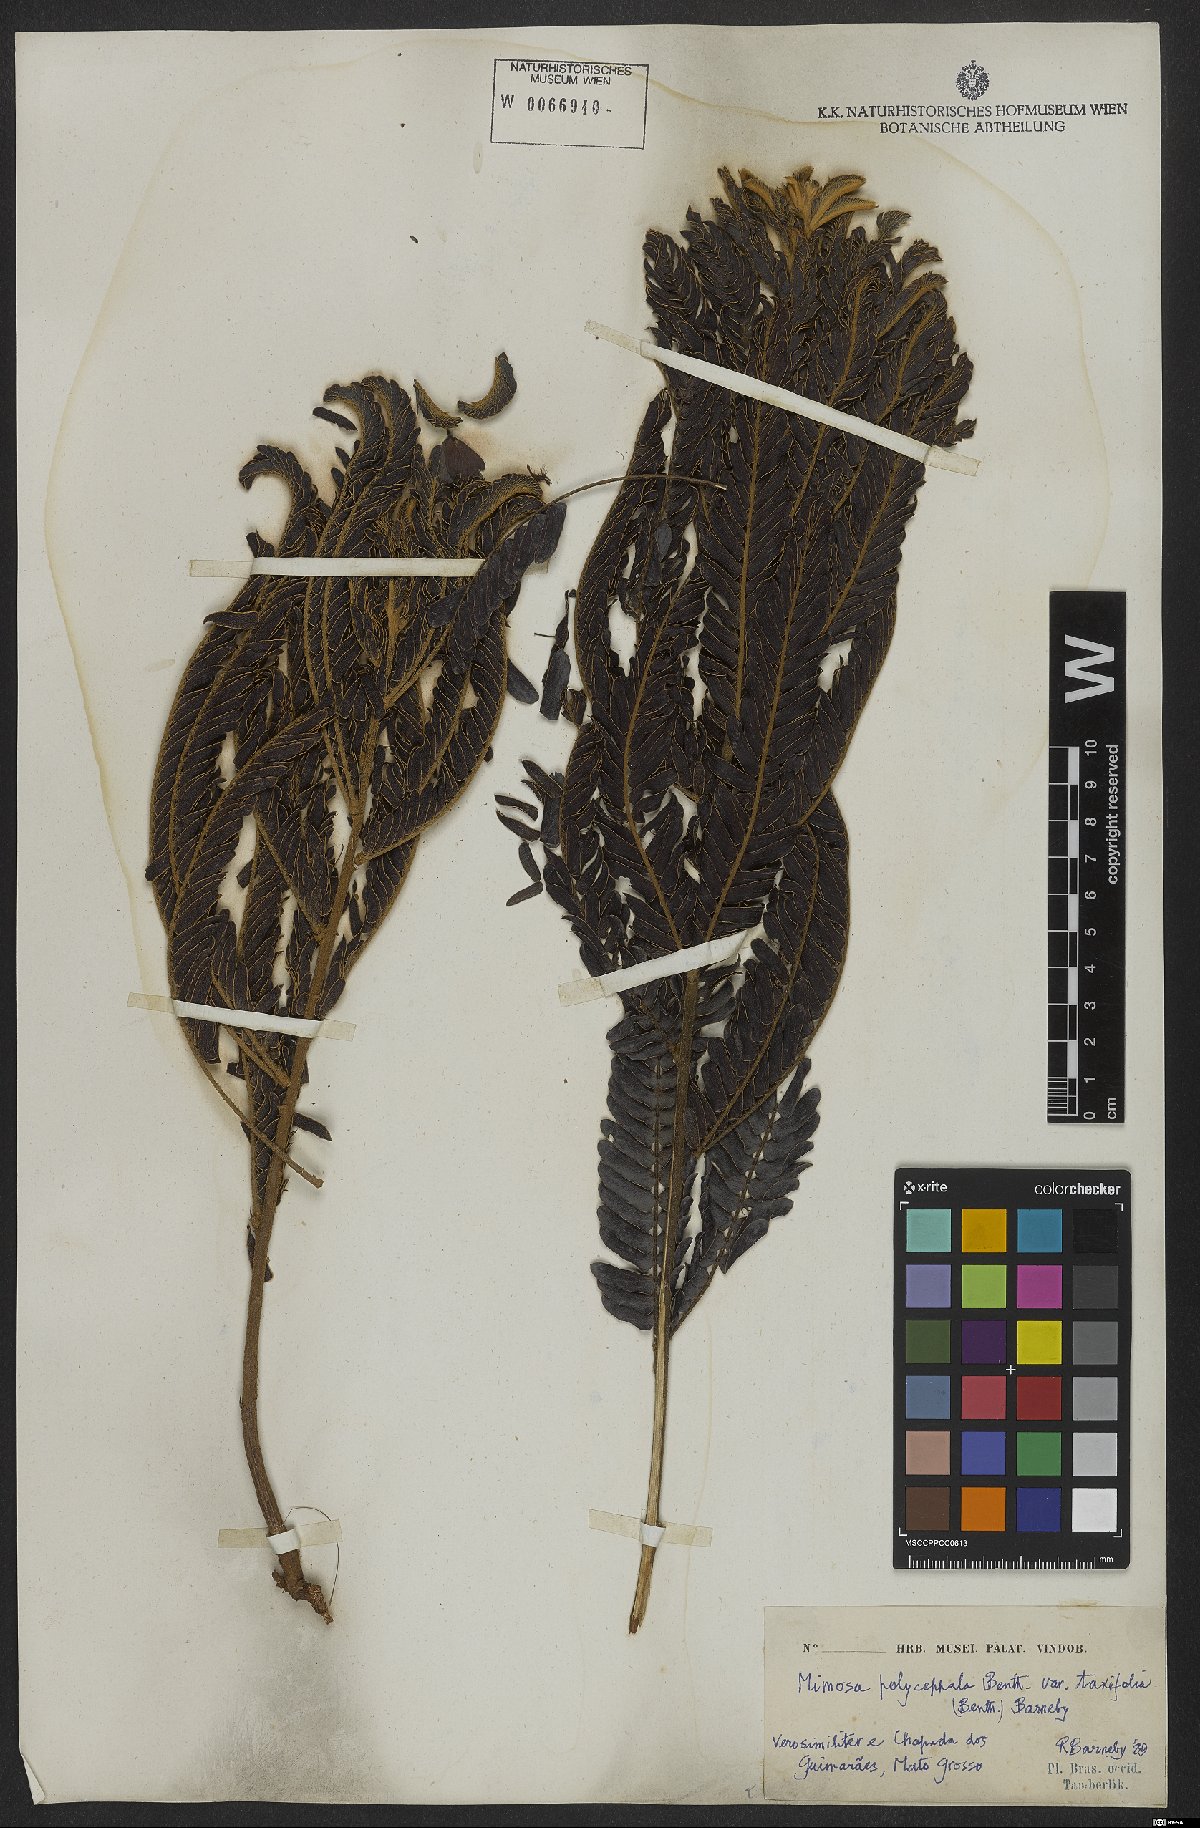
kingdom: Plantae
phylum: Tracheophyta
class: Magnoliopsida
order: Fabales
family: Fabaceae
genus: Mimosa
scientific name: Mimosa polycephala
